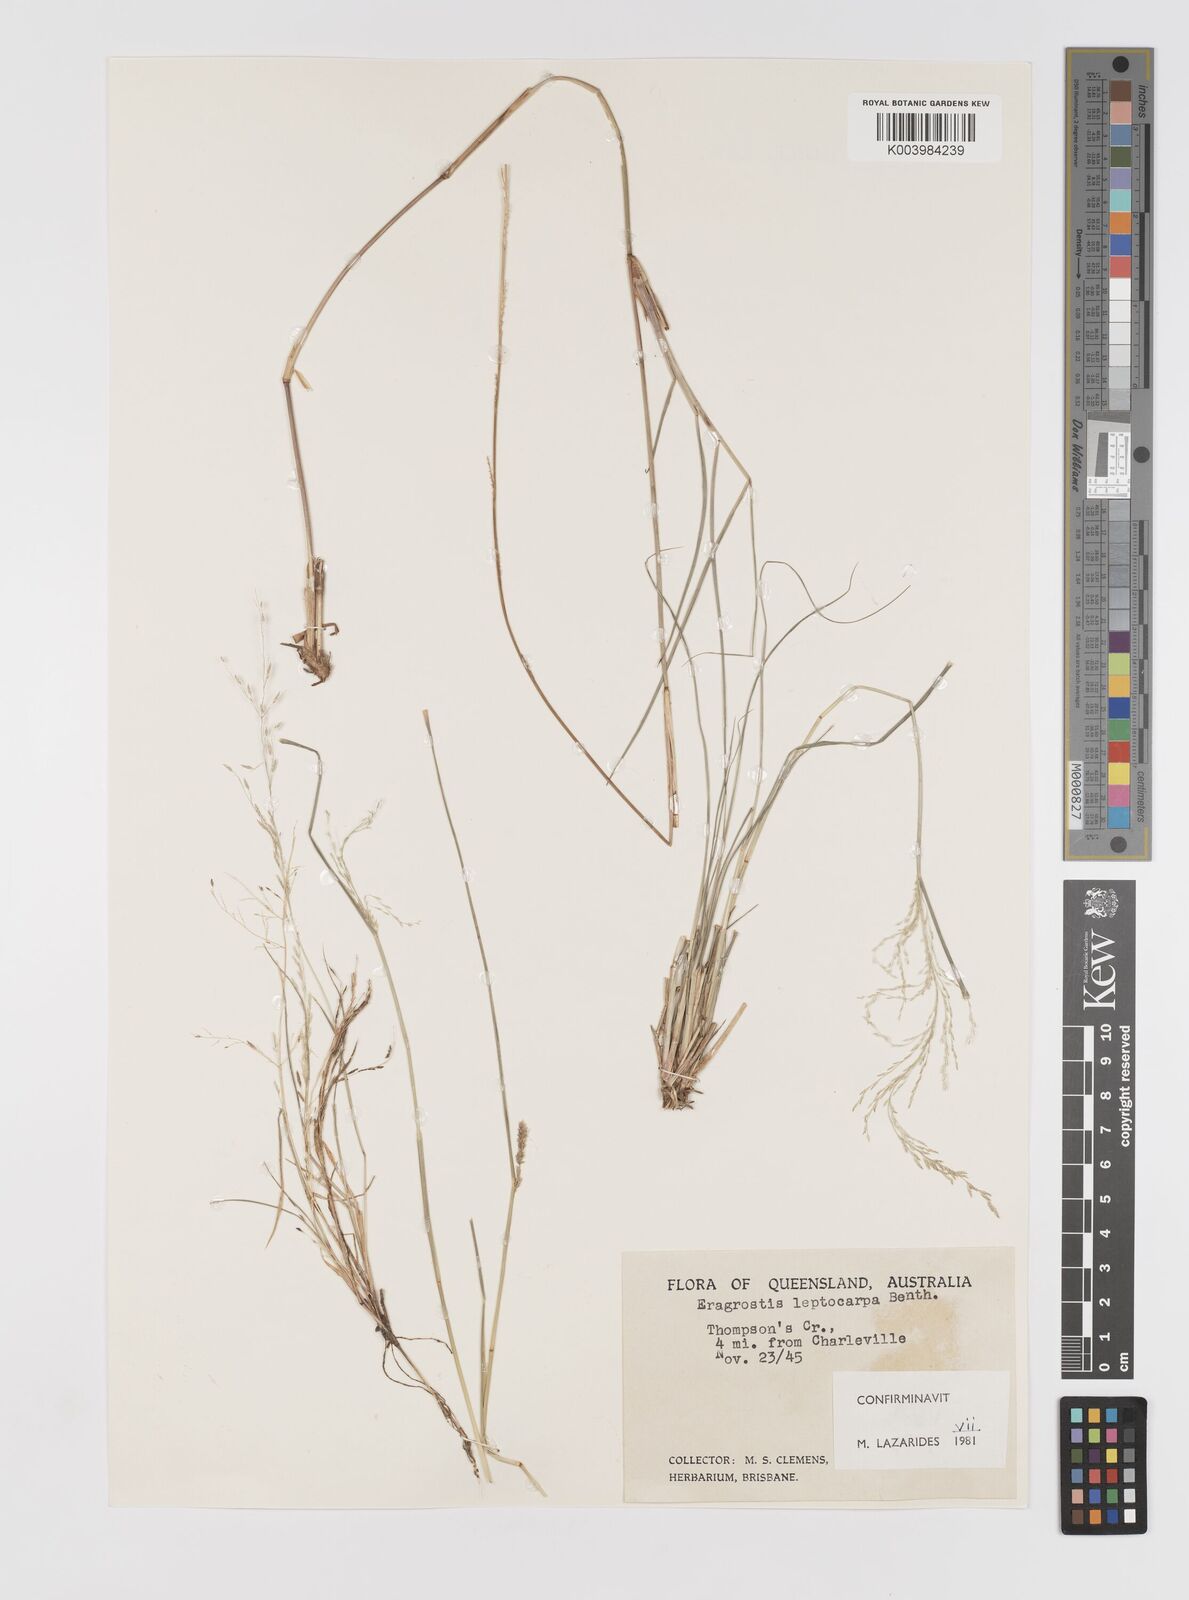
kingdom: Plantae
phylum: Tracheophyta
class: Liliopsida
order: Poales
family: Poaceae
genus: Eragrostis
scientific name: Eragrostis leptocarpa
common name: Drooping love grass
